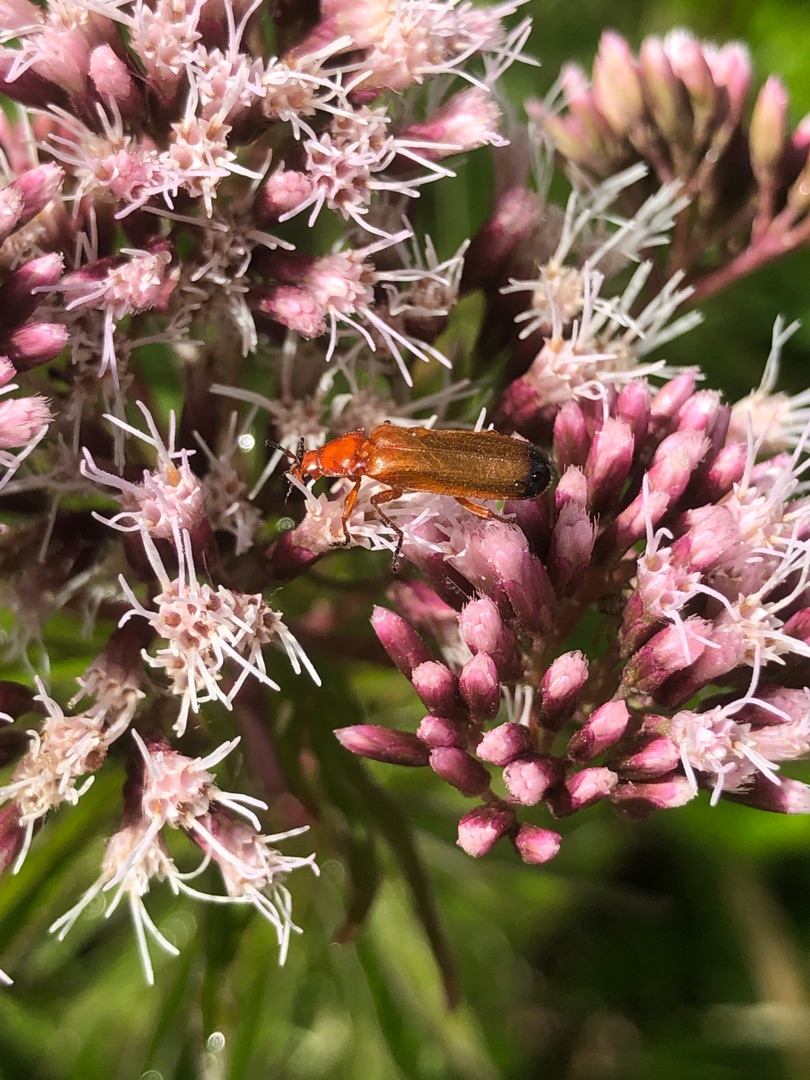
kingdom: Animalia
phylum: Arthropoda
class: Insecta
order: Coleoptera
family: Cantharidae
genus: Rhagonycha
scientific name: Rhagonycha fulva
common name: Præstebille
